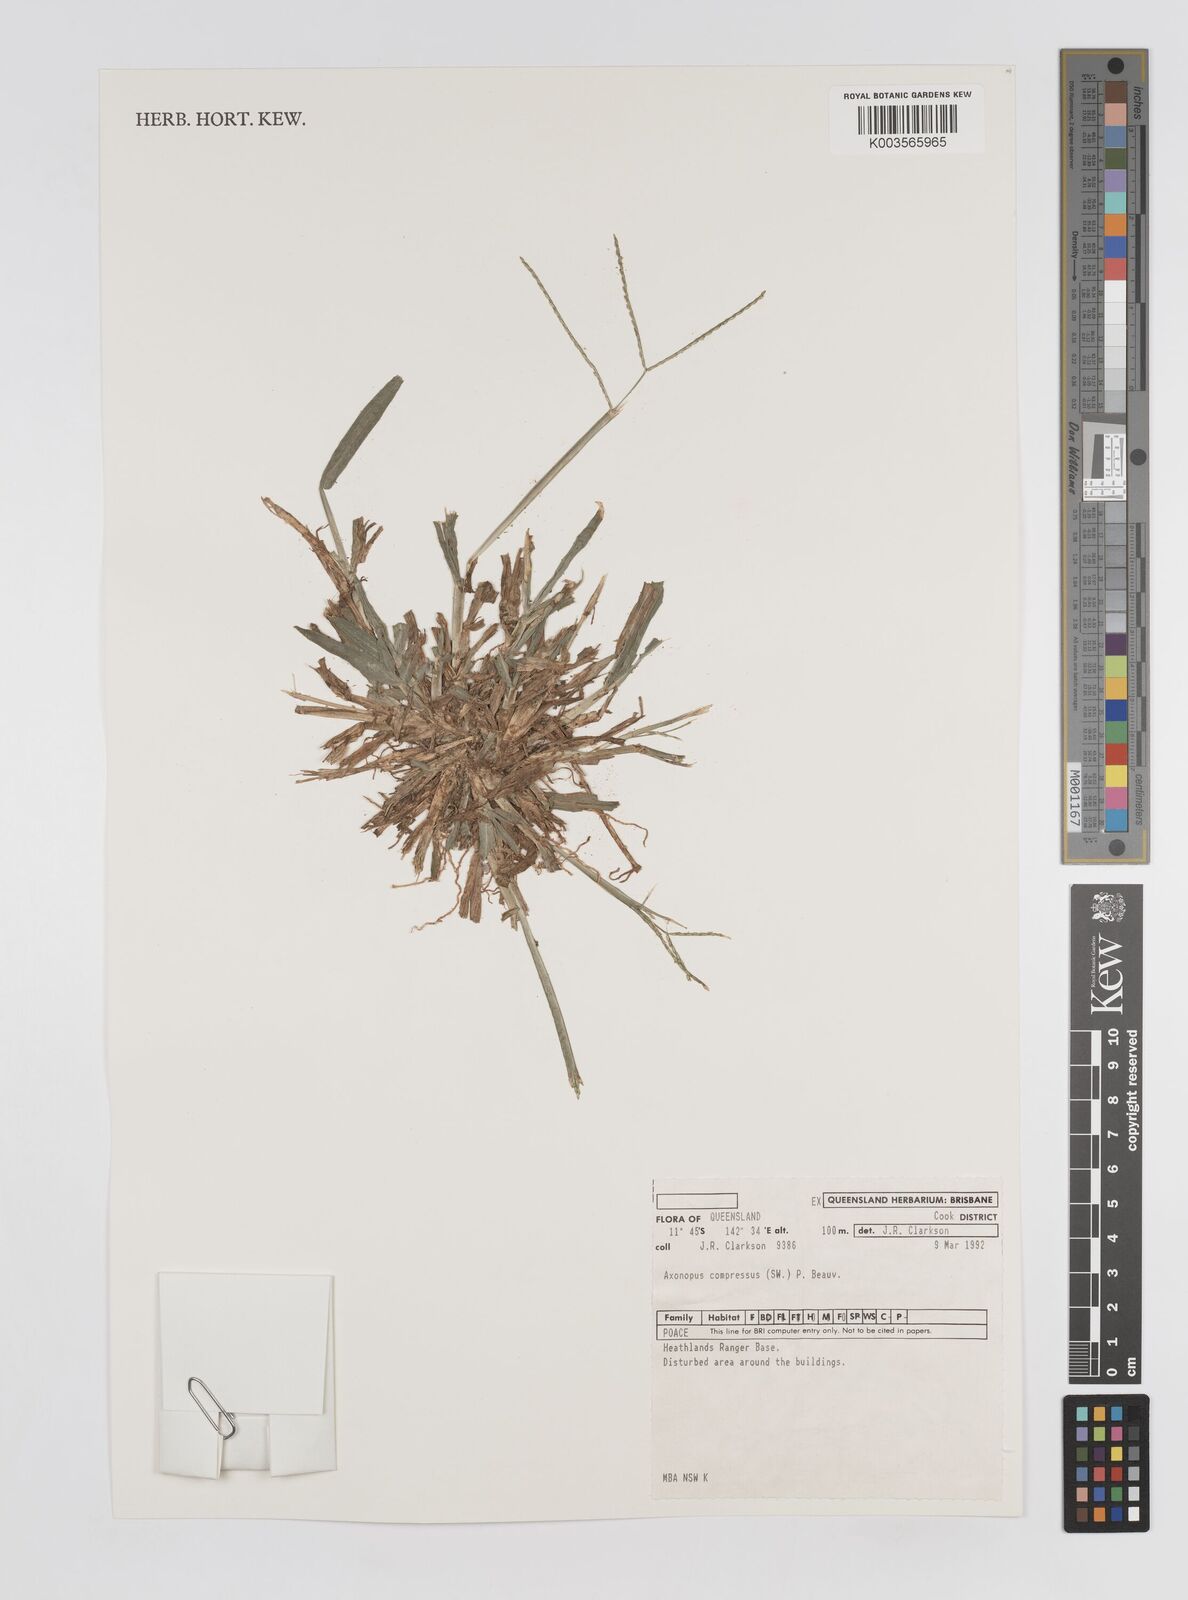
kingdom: Plantae
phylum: Tracheophyta
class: Liliopsida
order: Poales
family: Poaceae
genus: Axonopus
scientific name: Axonopus compressus
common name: American carpet grass
